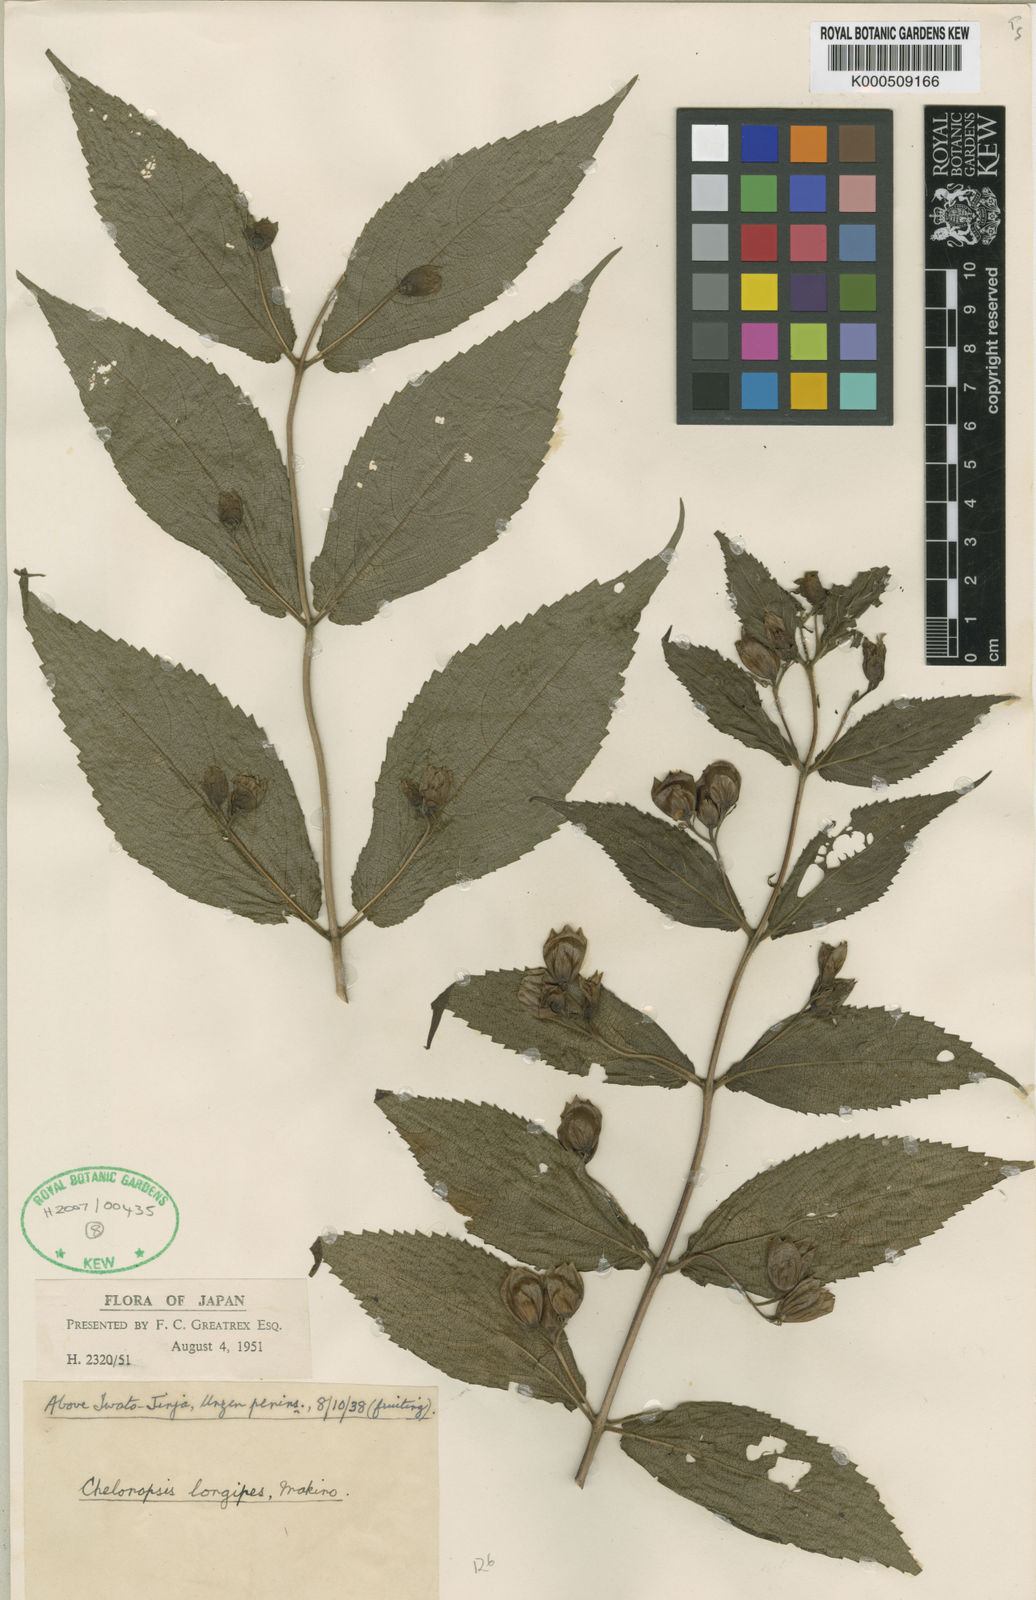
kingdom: Plantae
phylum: Tracheophyta
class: Magnoliopsida
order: Lamiales
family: Lamiaceae
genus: Chelonopsis
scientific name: Chelonopsis longipes
